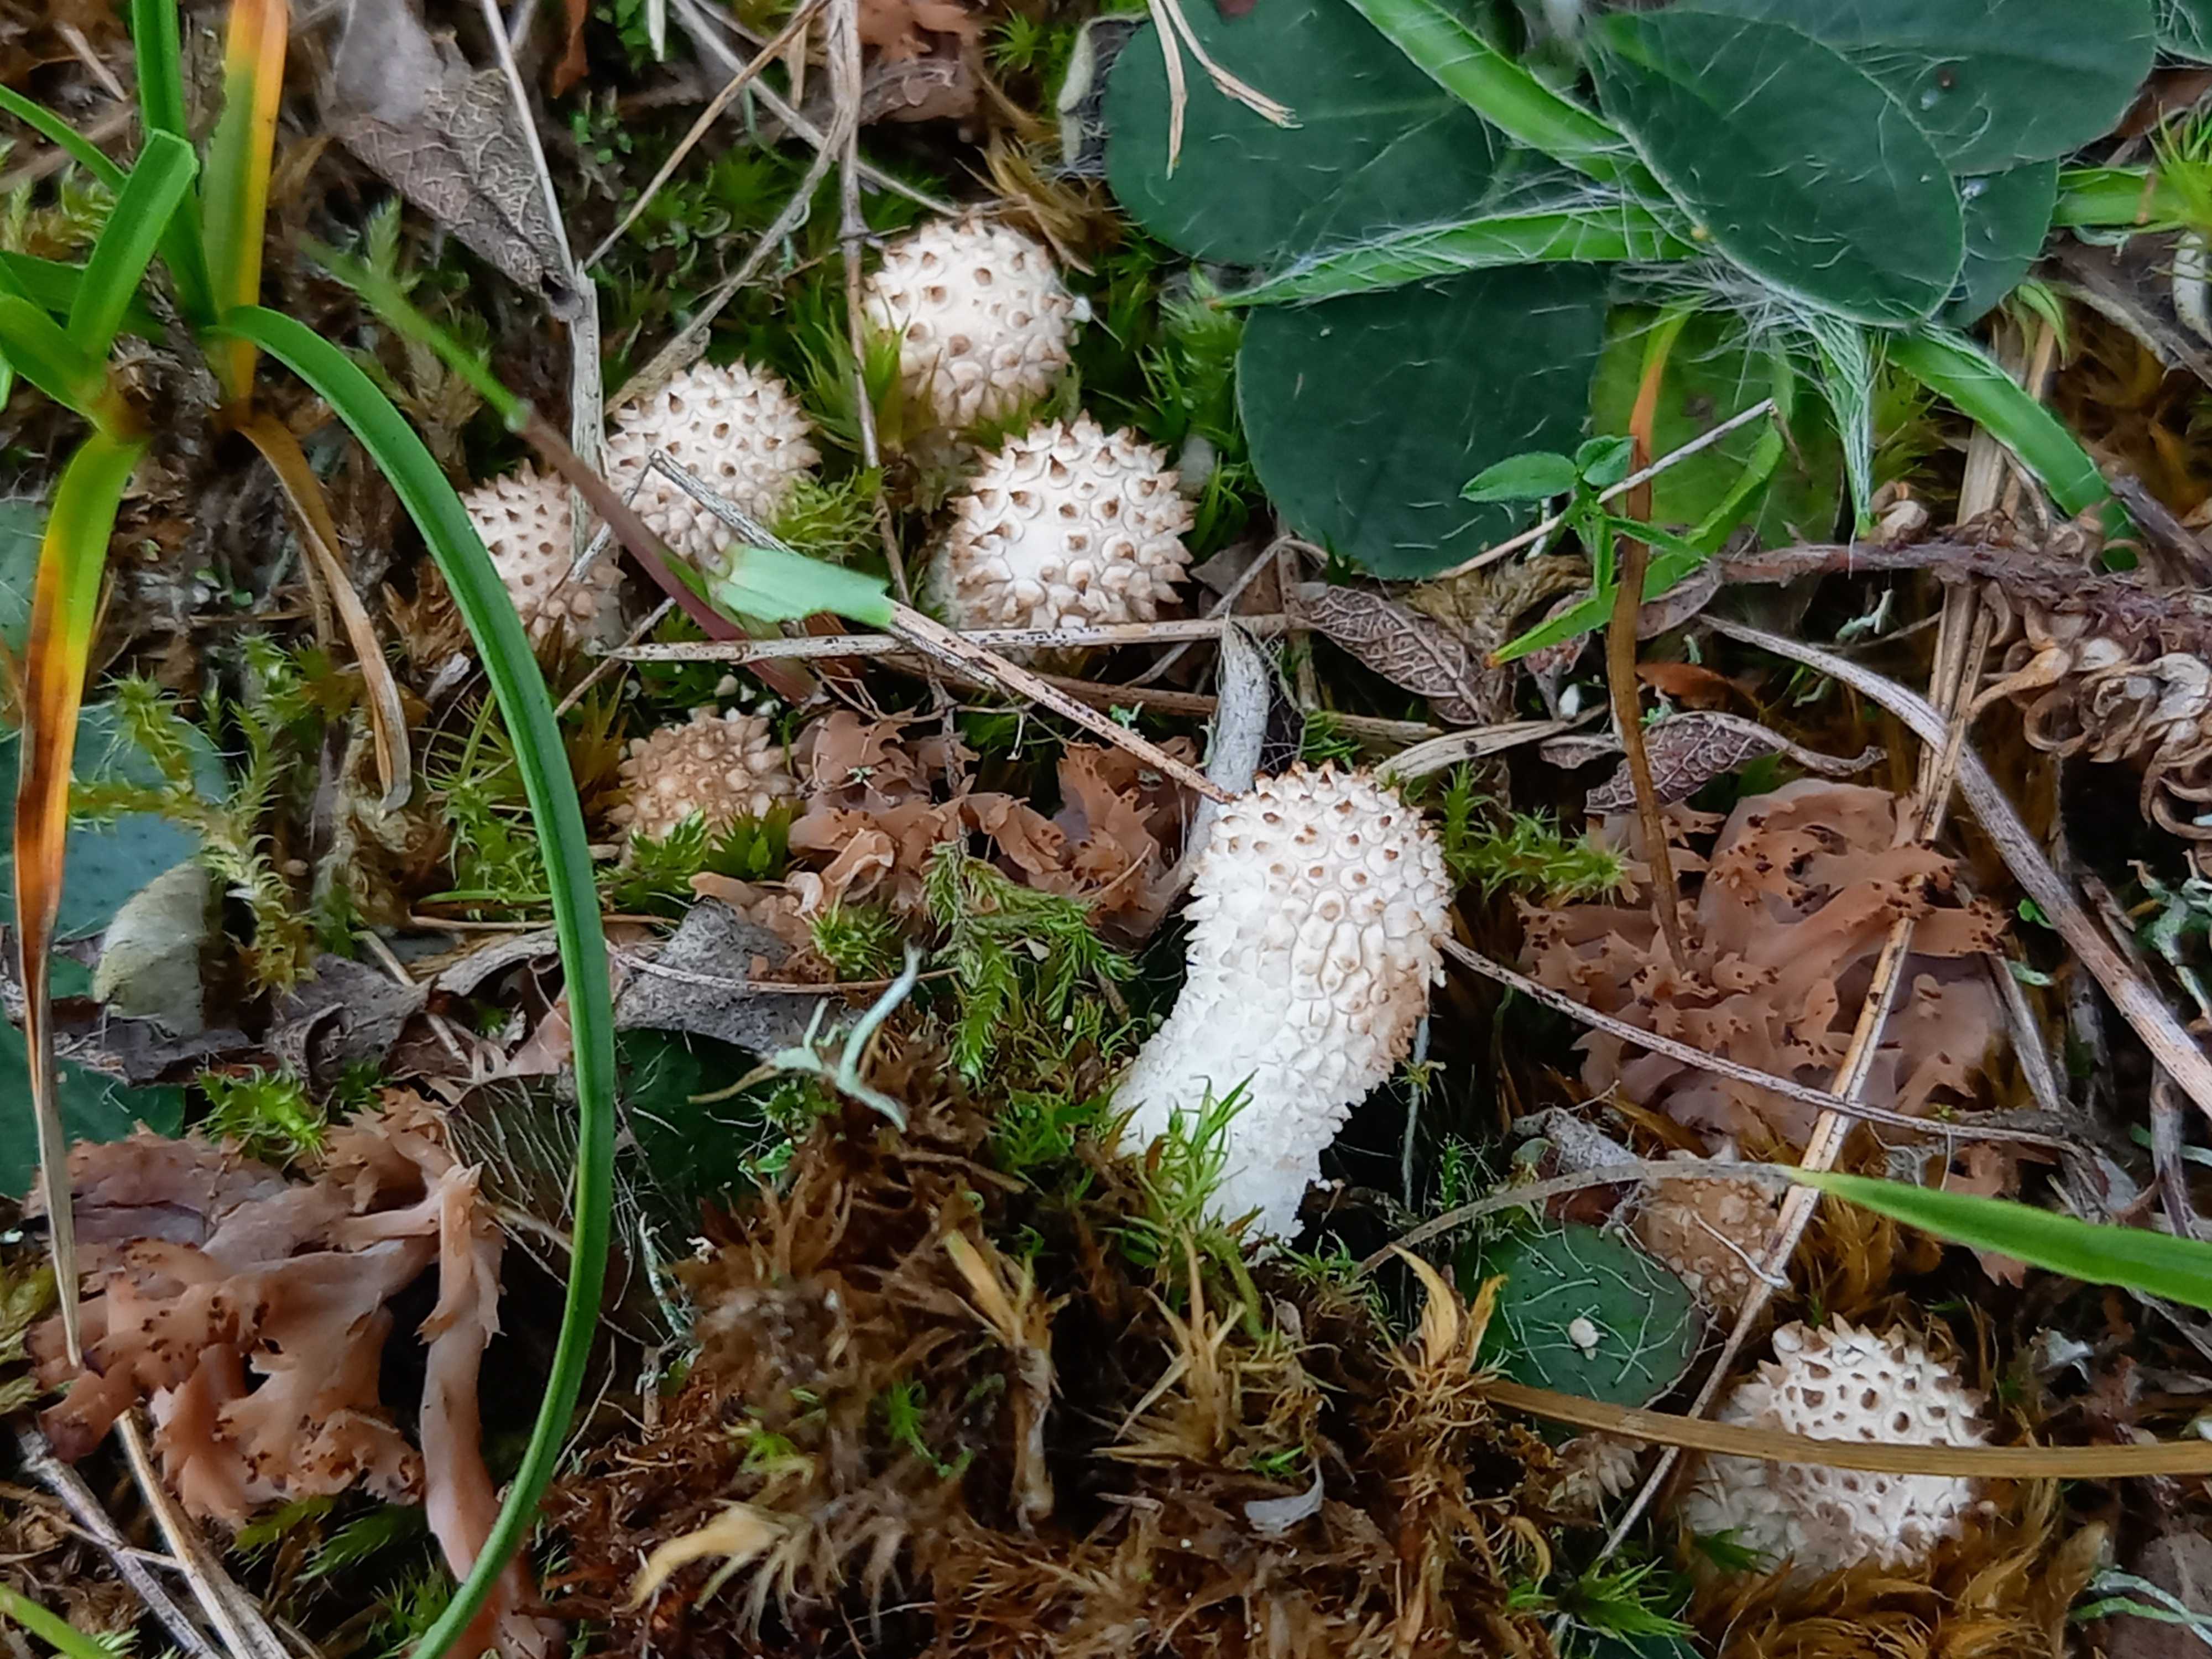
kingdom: Fungi
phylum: Basidiomycota
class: Agaricomycetes
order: Agaricales
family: Agaricaceae
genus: Lycoperdon
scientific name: Lycoperdon
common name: støvbold
